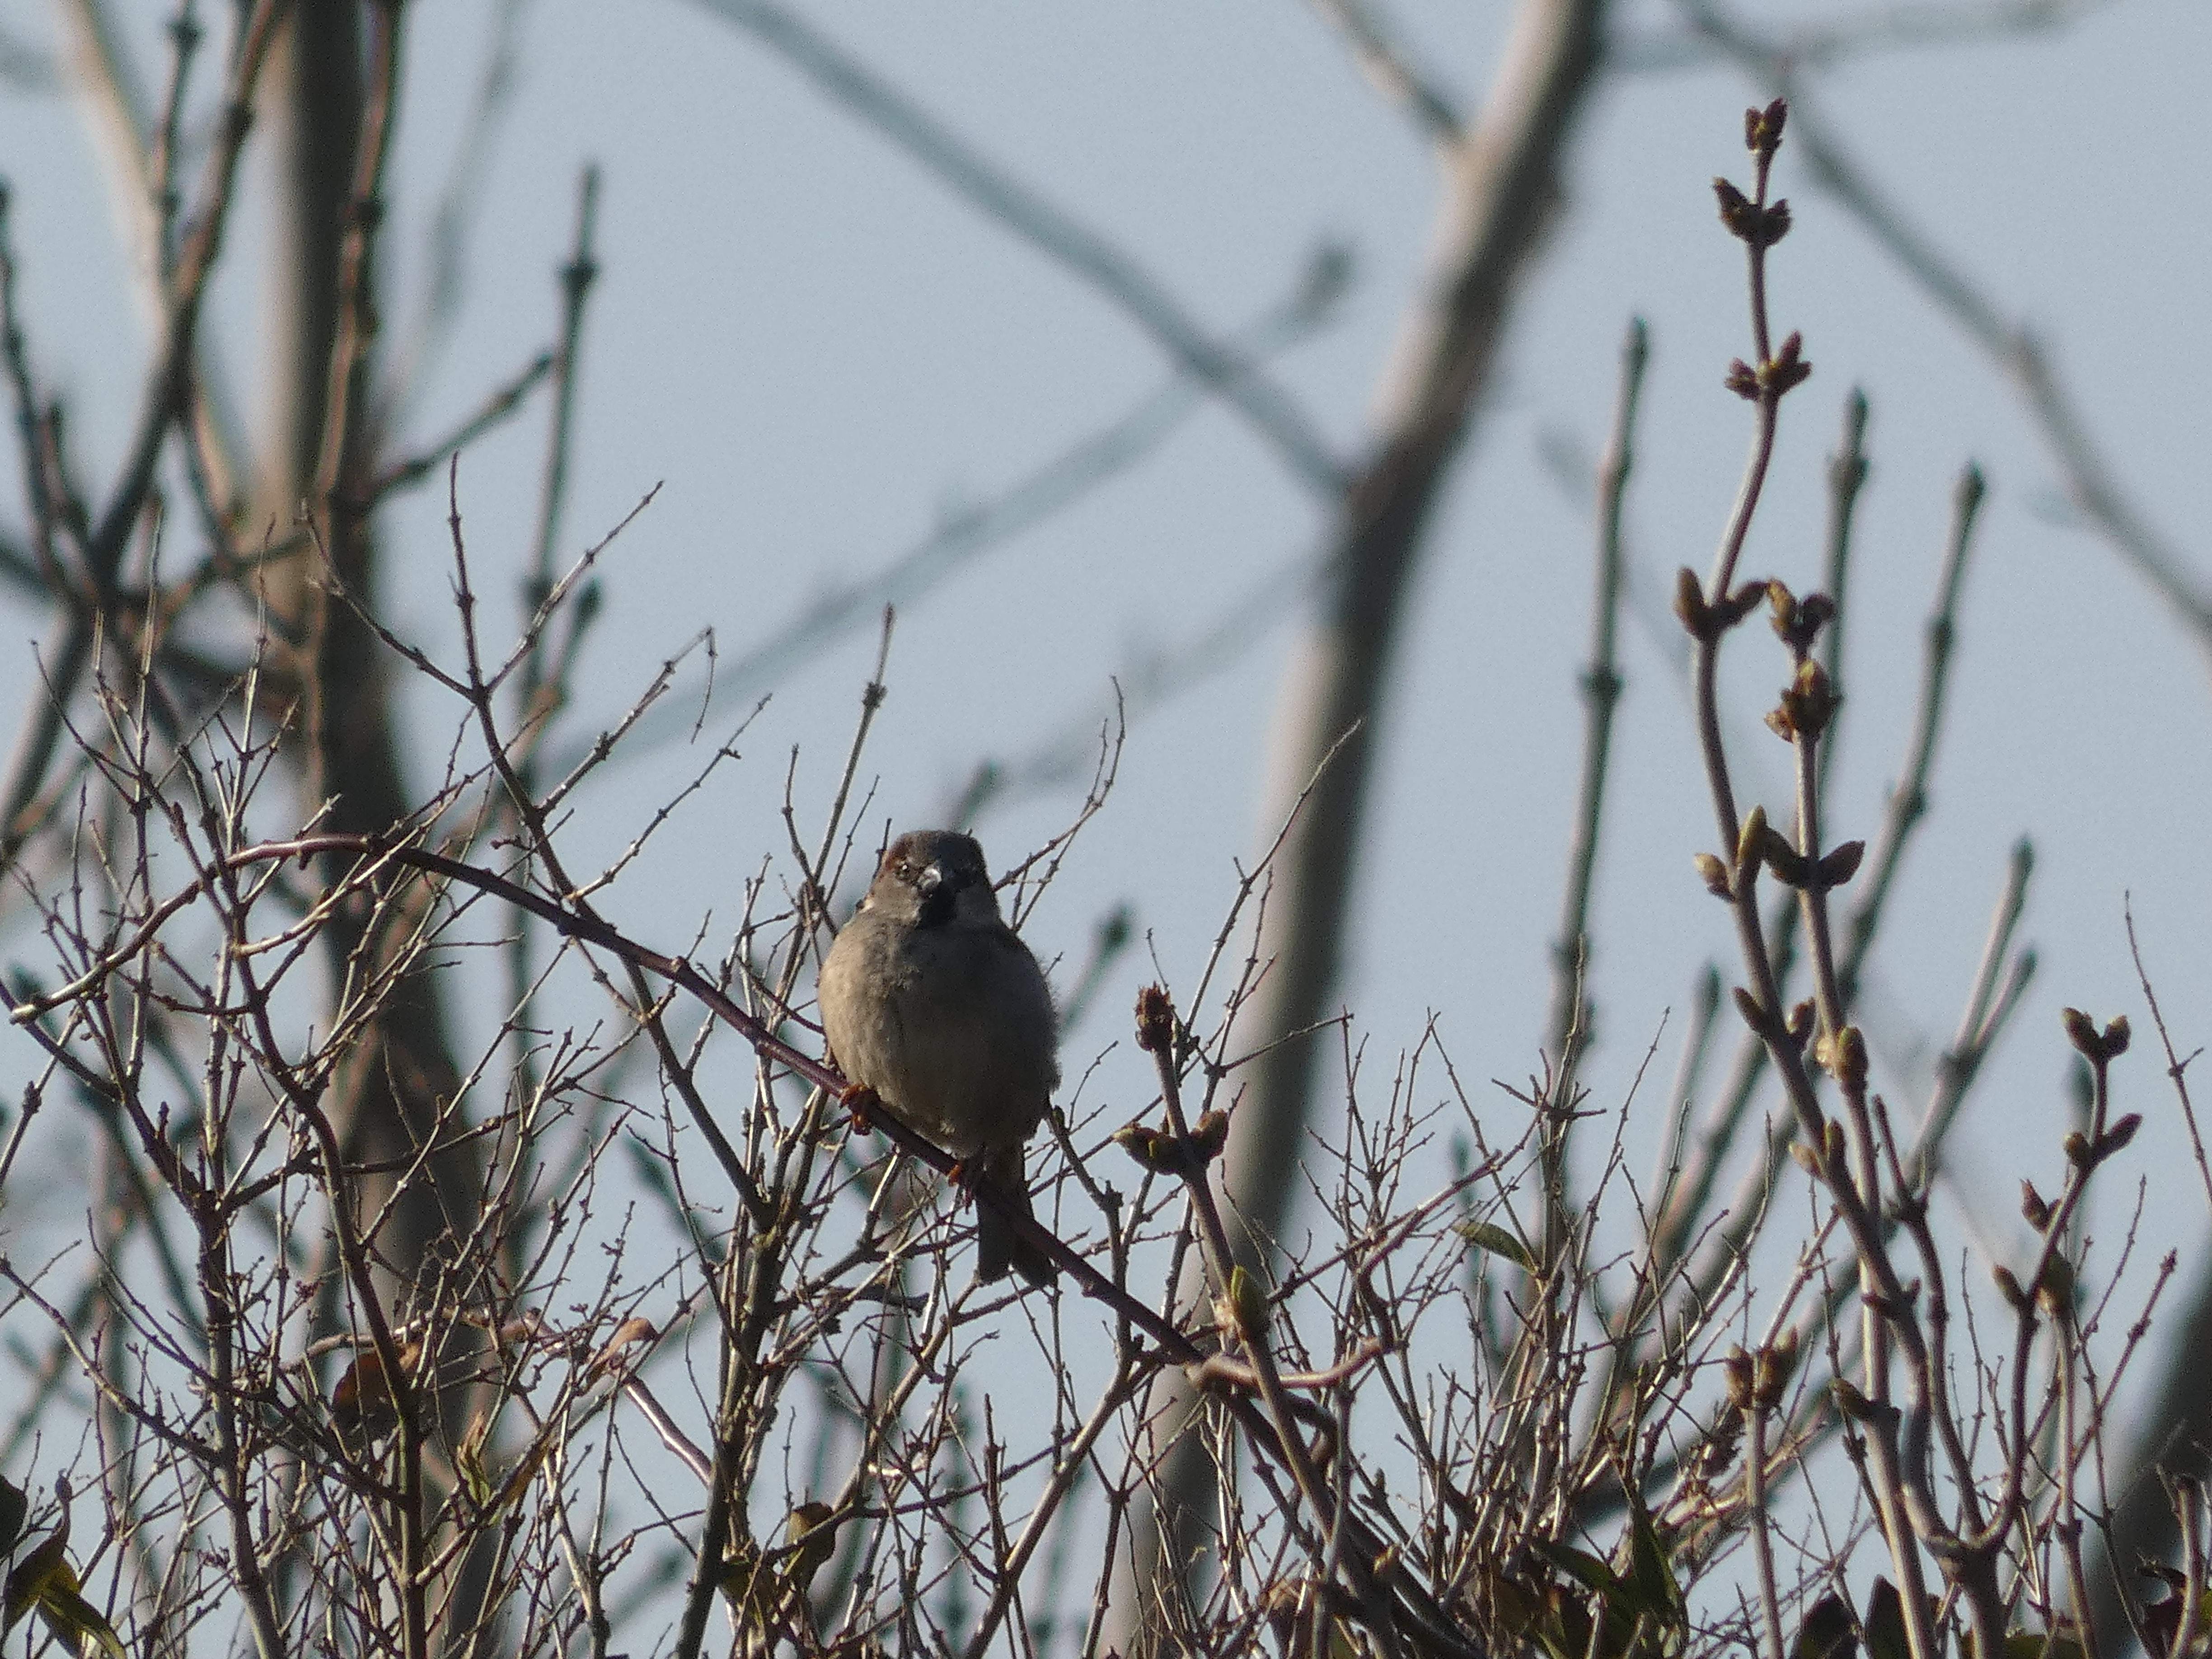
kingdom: Animalia
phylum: Chordata
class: Aves
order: Passeriformes
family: Passeridae
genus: Passer
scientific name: Passer domesticus
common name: Gråspurv
